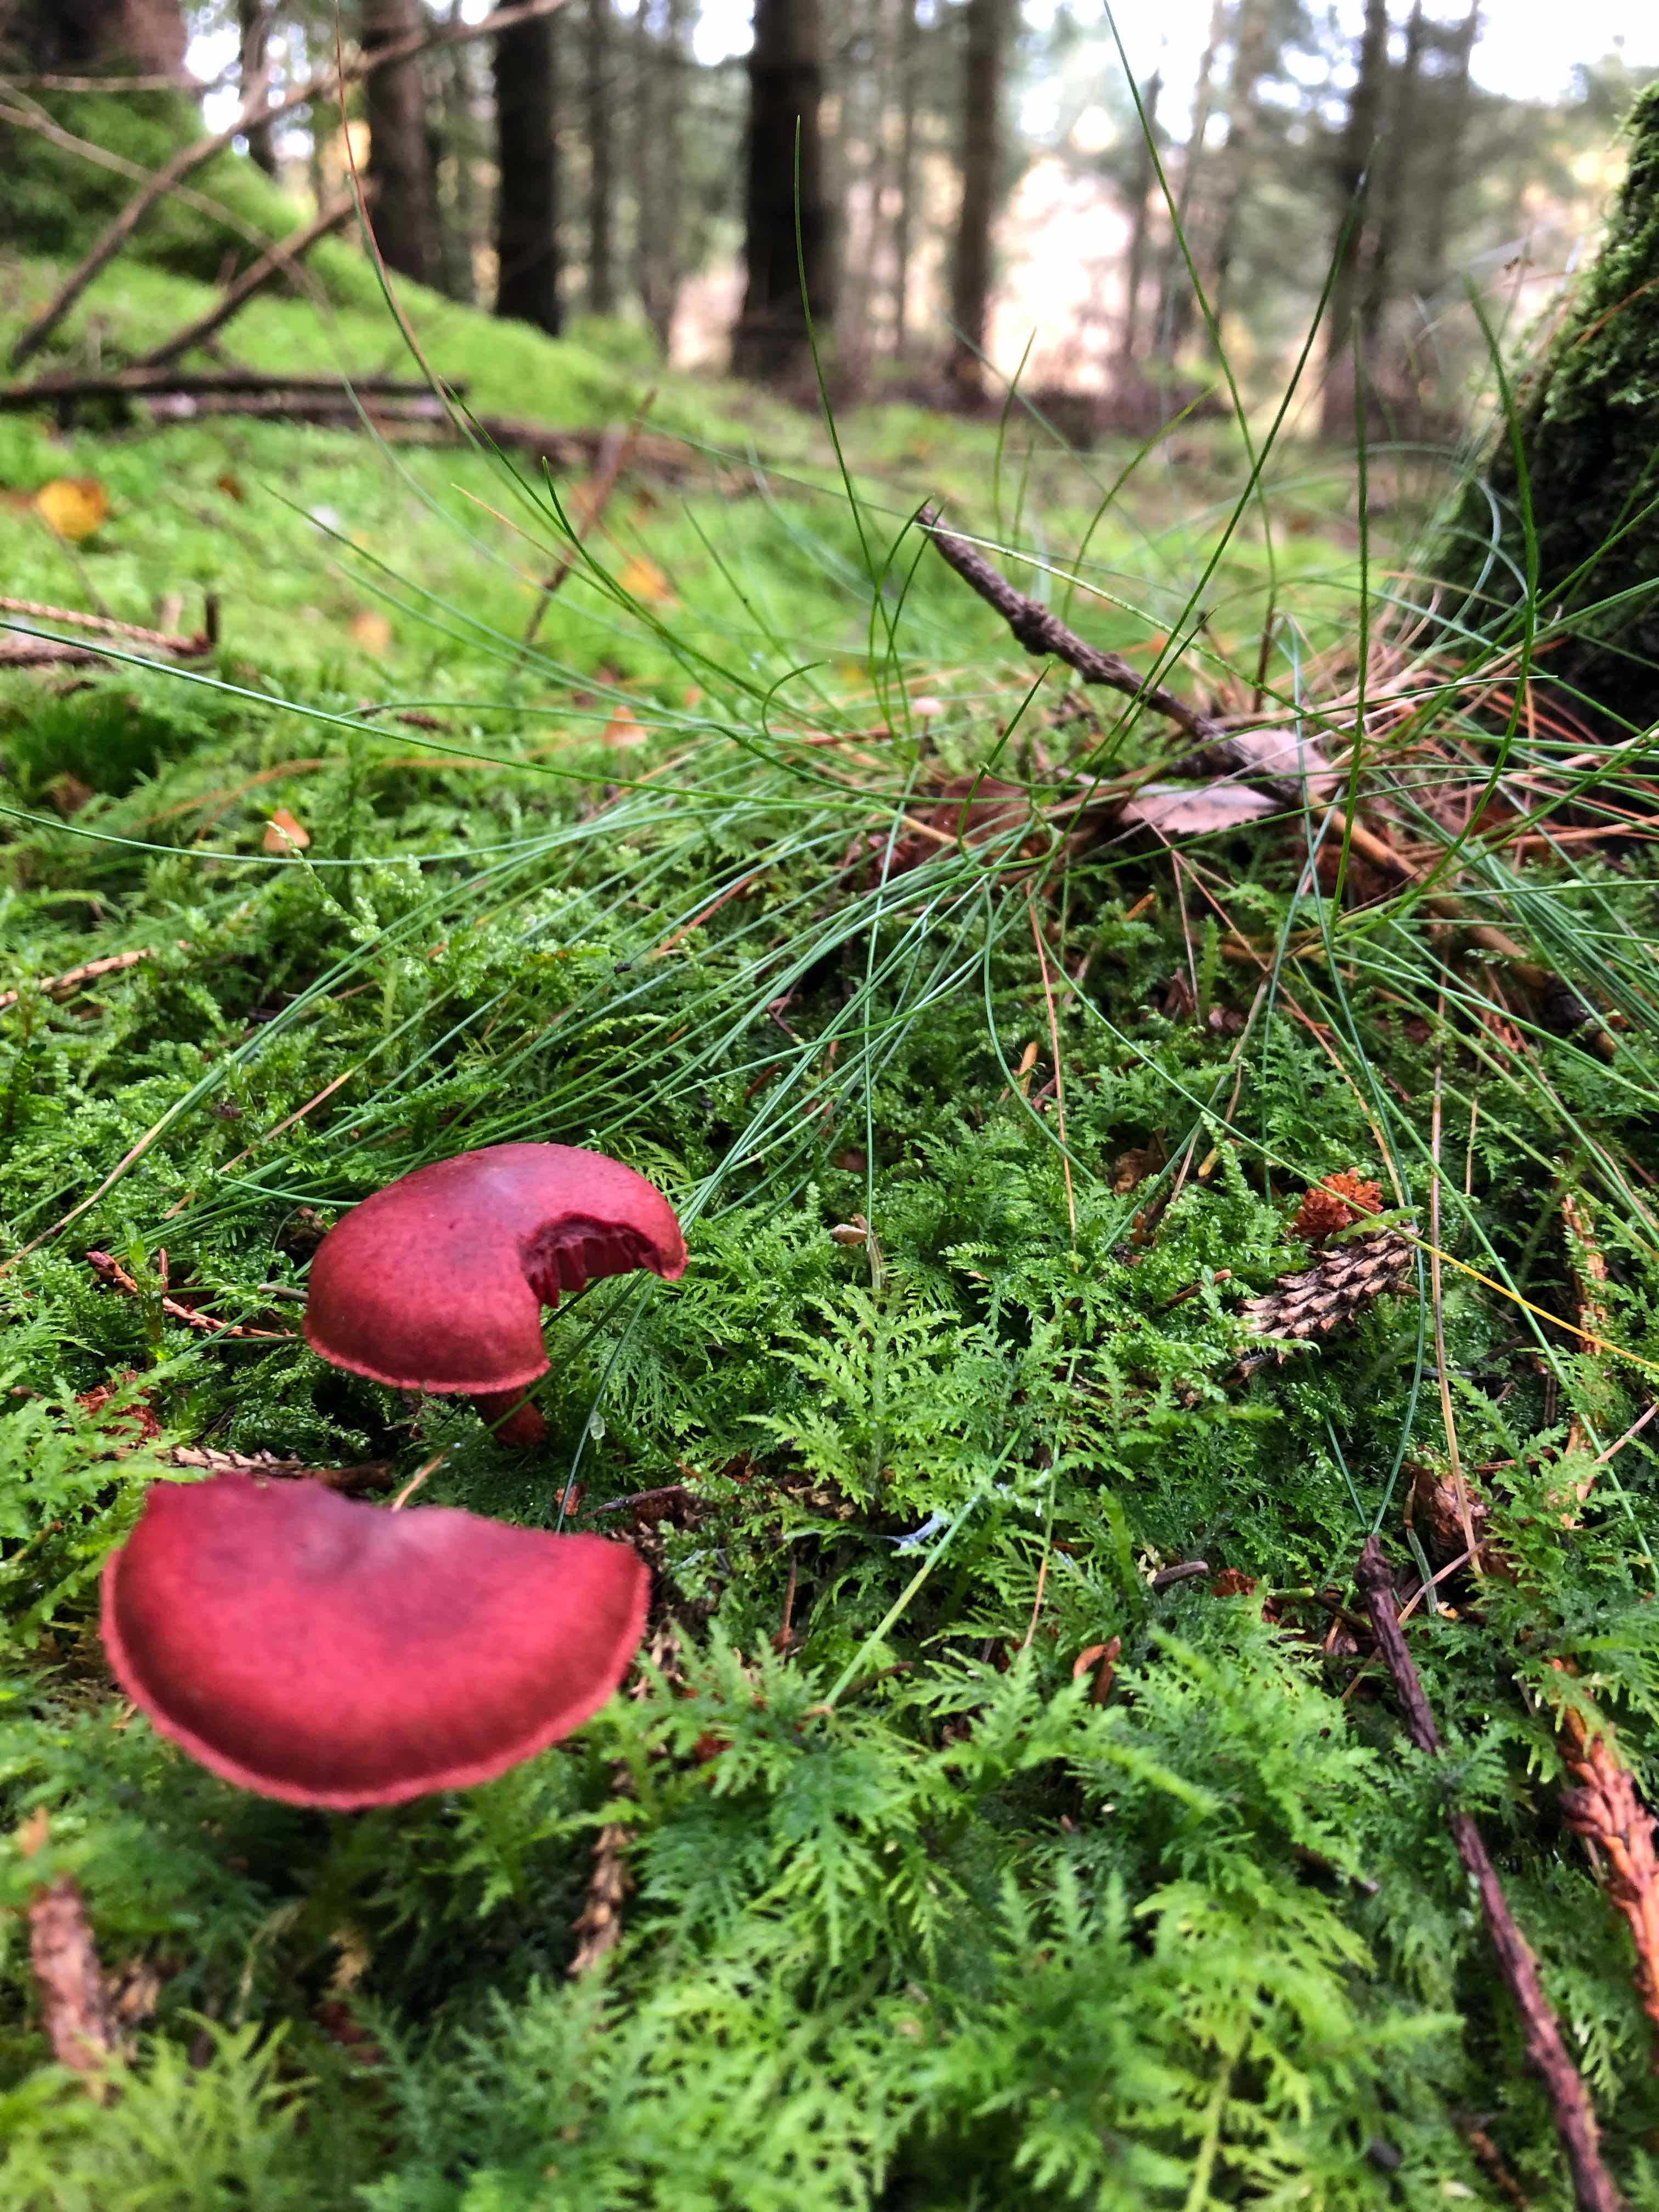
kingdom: Fungi
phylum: Basidiomycota
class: Agaricomycetes
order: Agaricales
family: Cortinariaceae
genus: Cortinarius
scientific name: Cortinarius sanguineus
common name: blodrød slørhat
